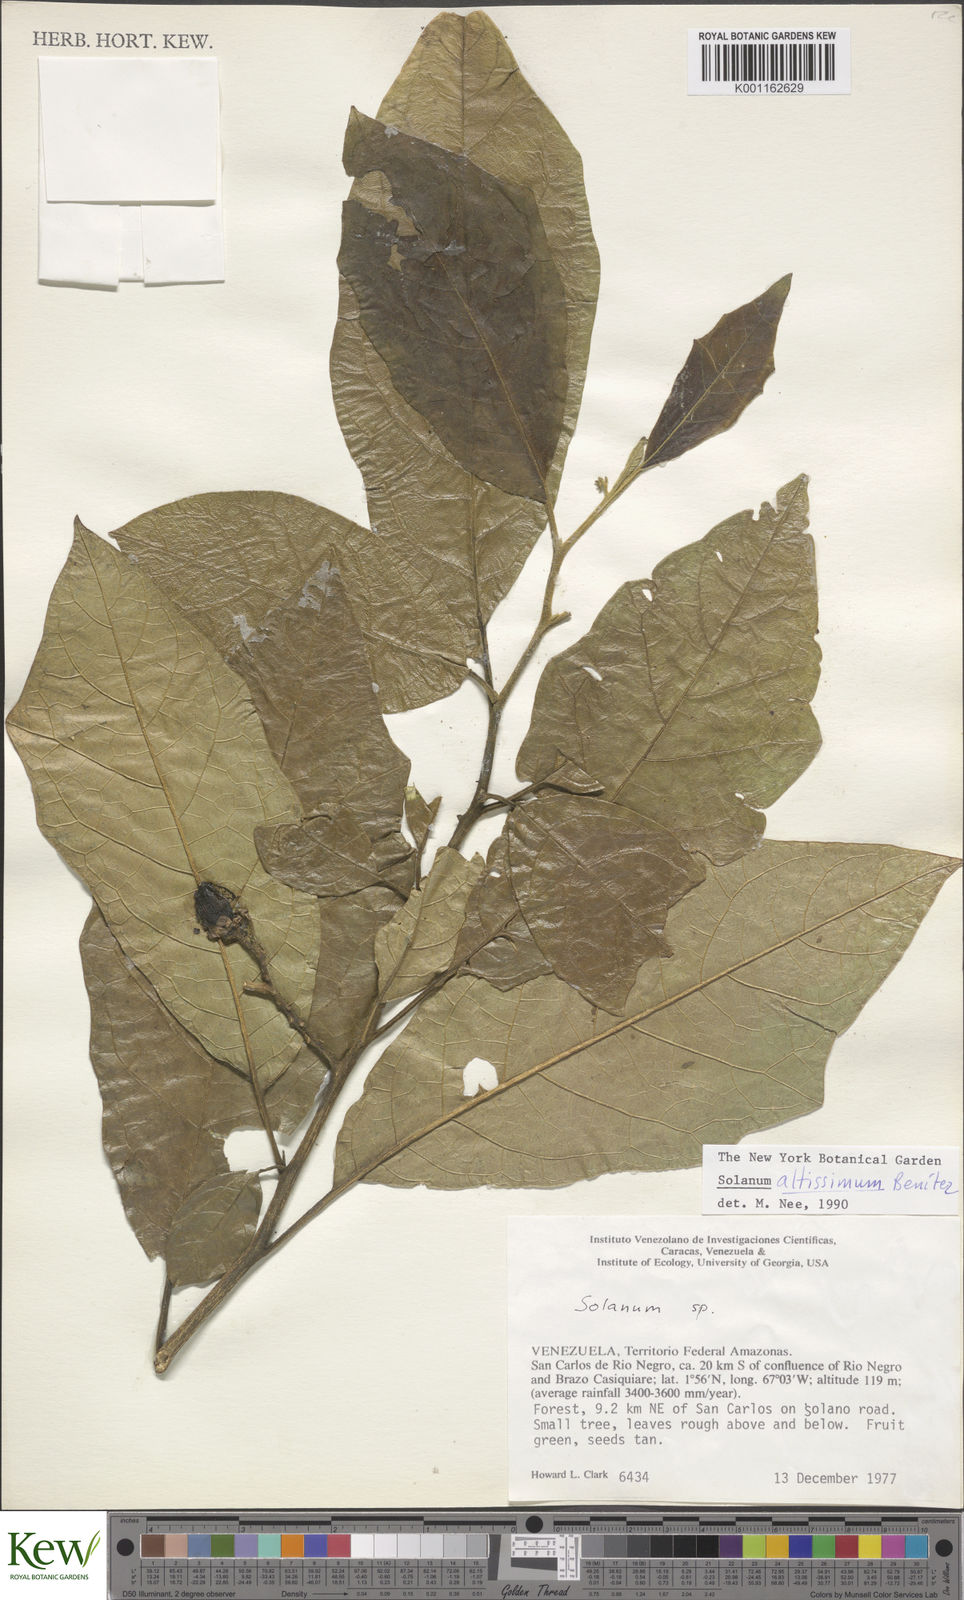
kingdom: Plantae
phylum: Tracheophyta
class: Magnoliopsida
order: Solanales
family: Solanaceae
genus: Solanum
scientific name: Solanum
